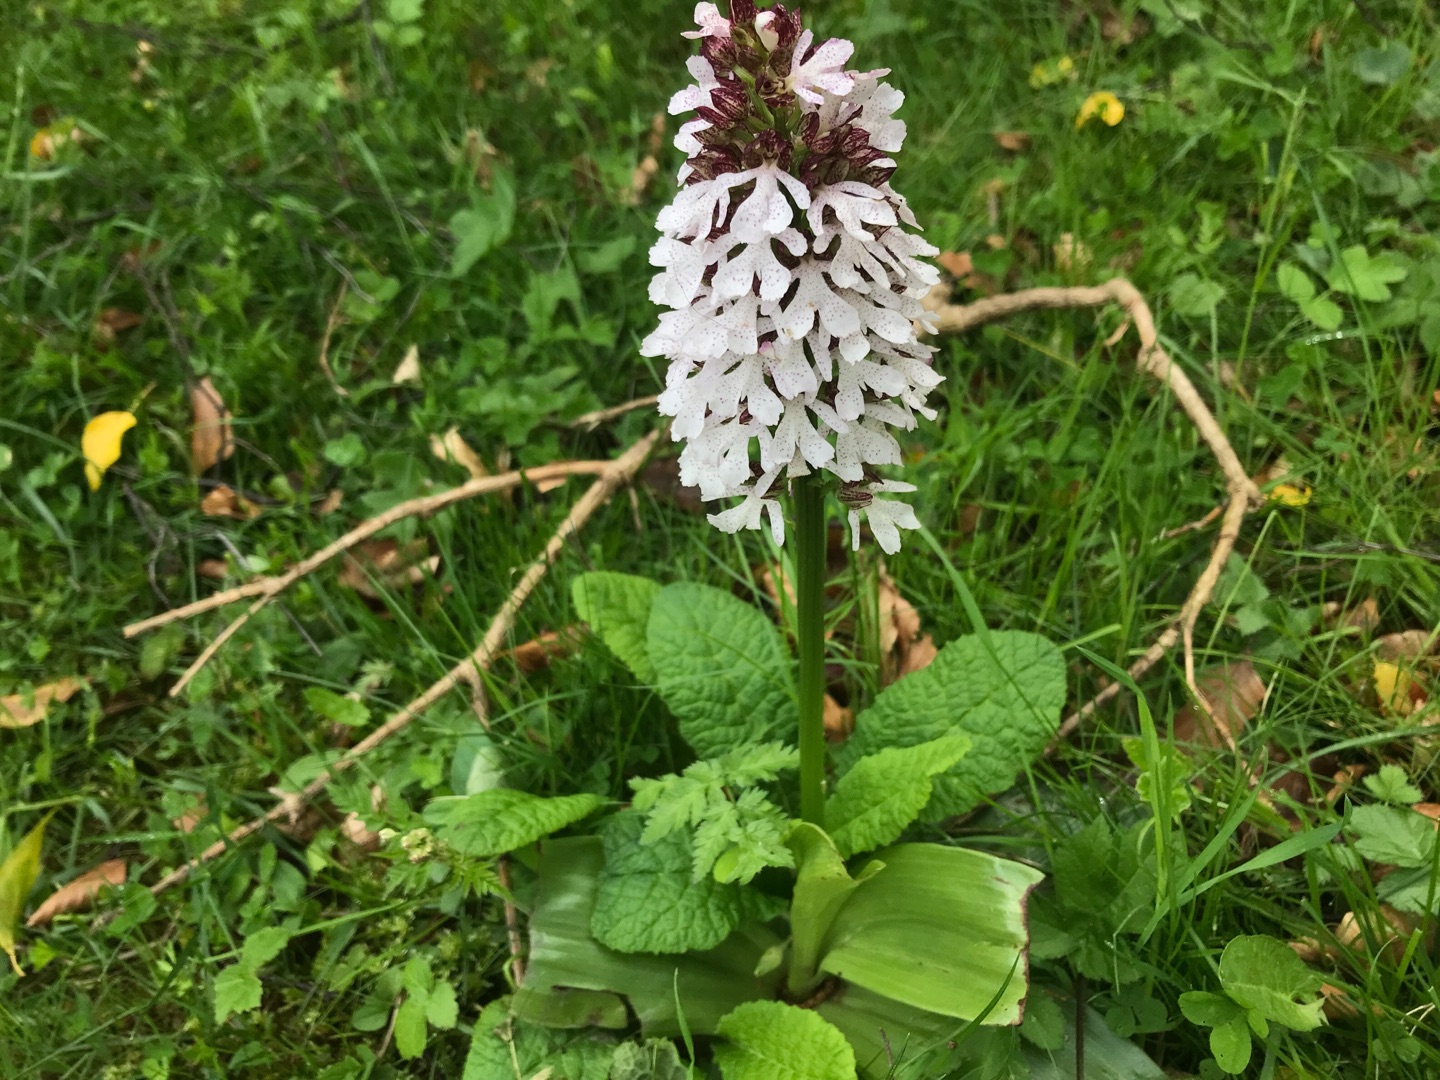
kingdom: Plantae
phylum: Tracheophyta
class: Liliopsida
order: Asparagales
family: Orchidaceae
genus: Orchis
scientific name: Orchis purpurea
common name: Stor gøgeurt
